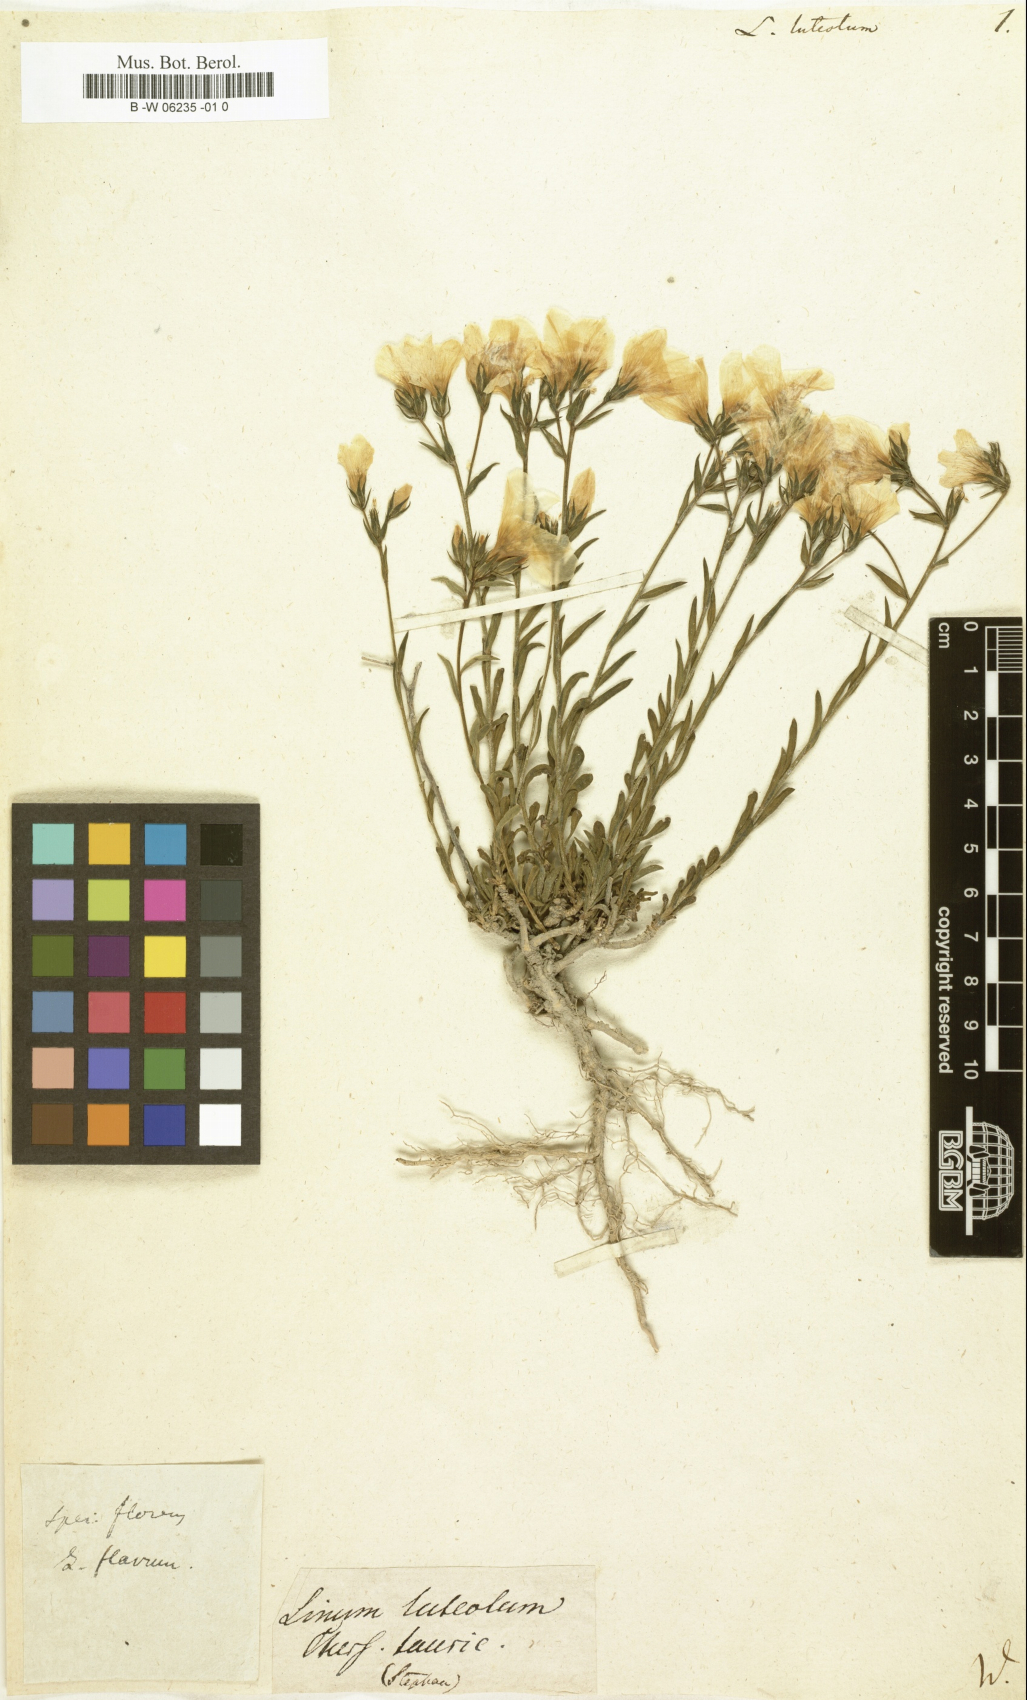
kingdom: Plantae
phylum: Tracheophyta
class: Magnoliopsida
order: Malpighiales
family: Linaceae
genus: Linum
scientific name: Linum nodiflorum
